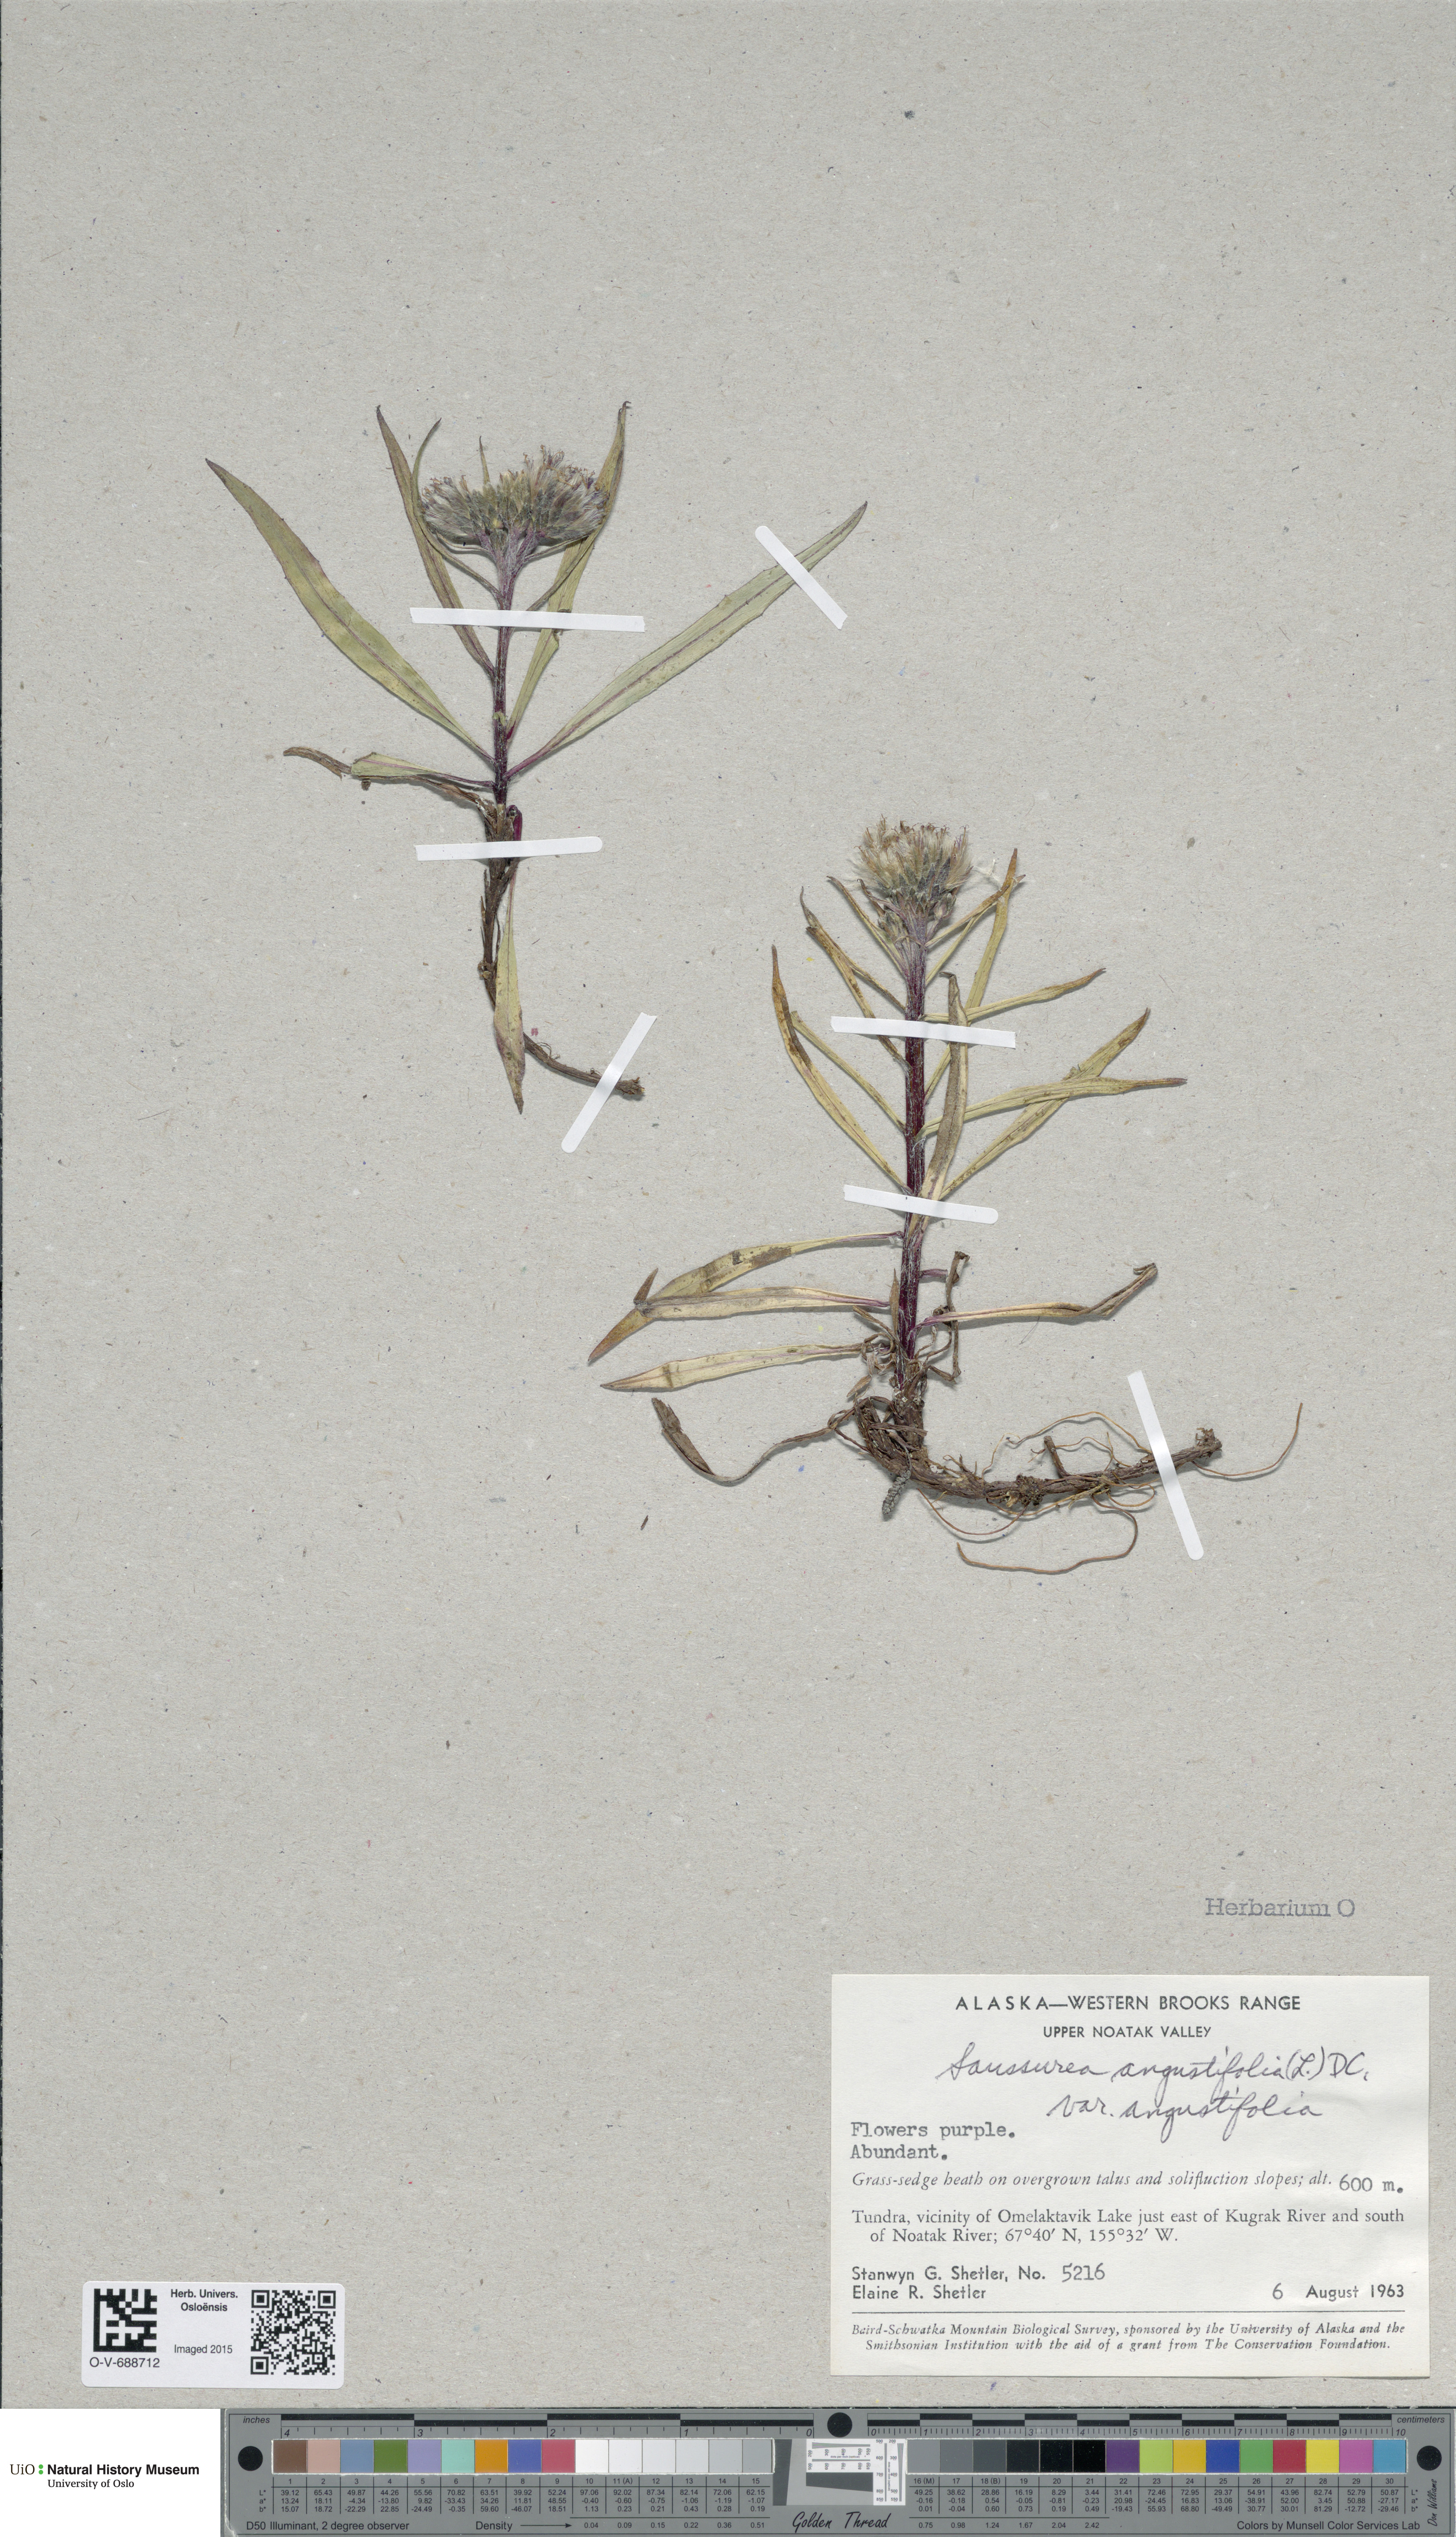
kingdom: Plantae
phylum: Tracheophyta
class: Magnoliopsida
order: Asterales
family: Asteraceae
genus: Saussurea
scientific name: Saussurea angustifolia
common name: Common saussurea
